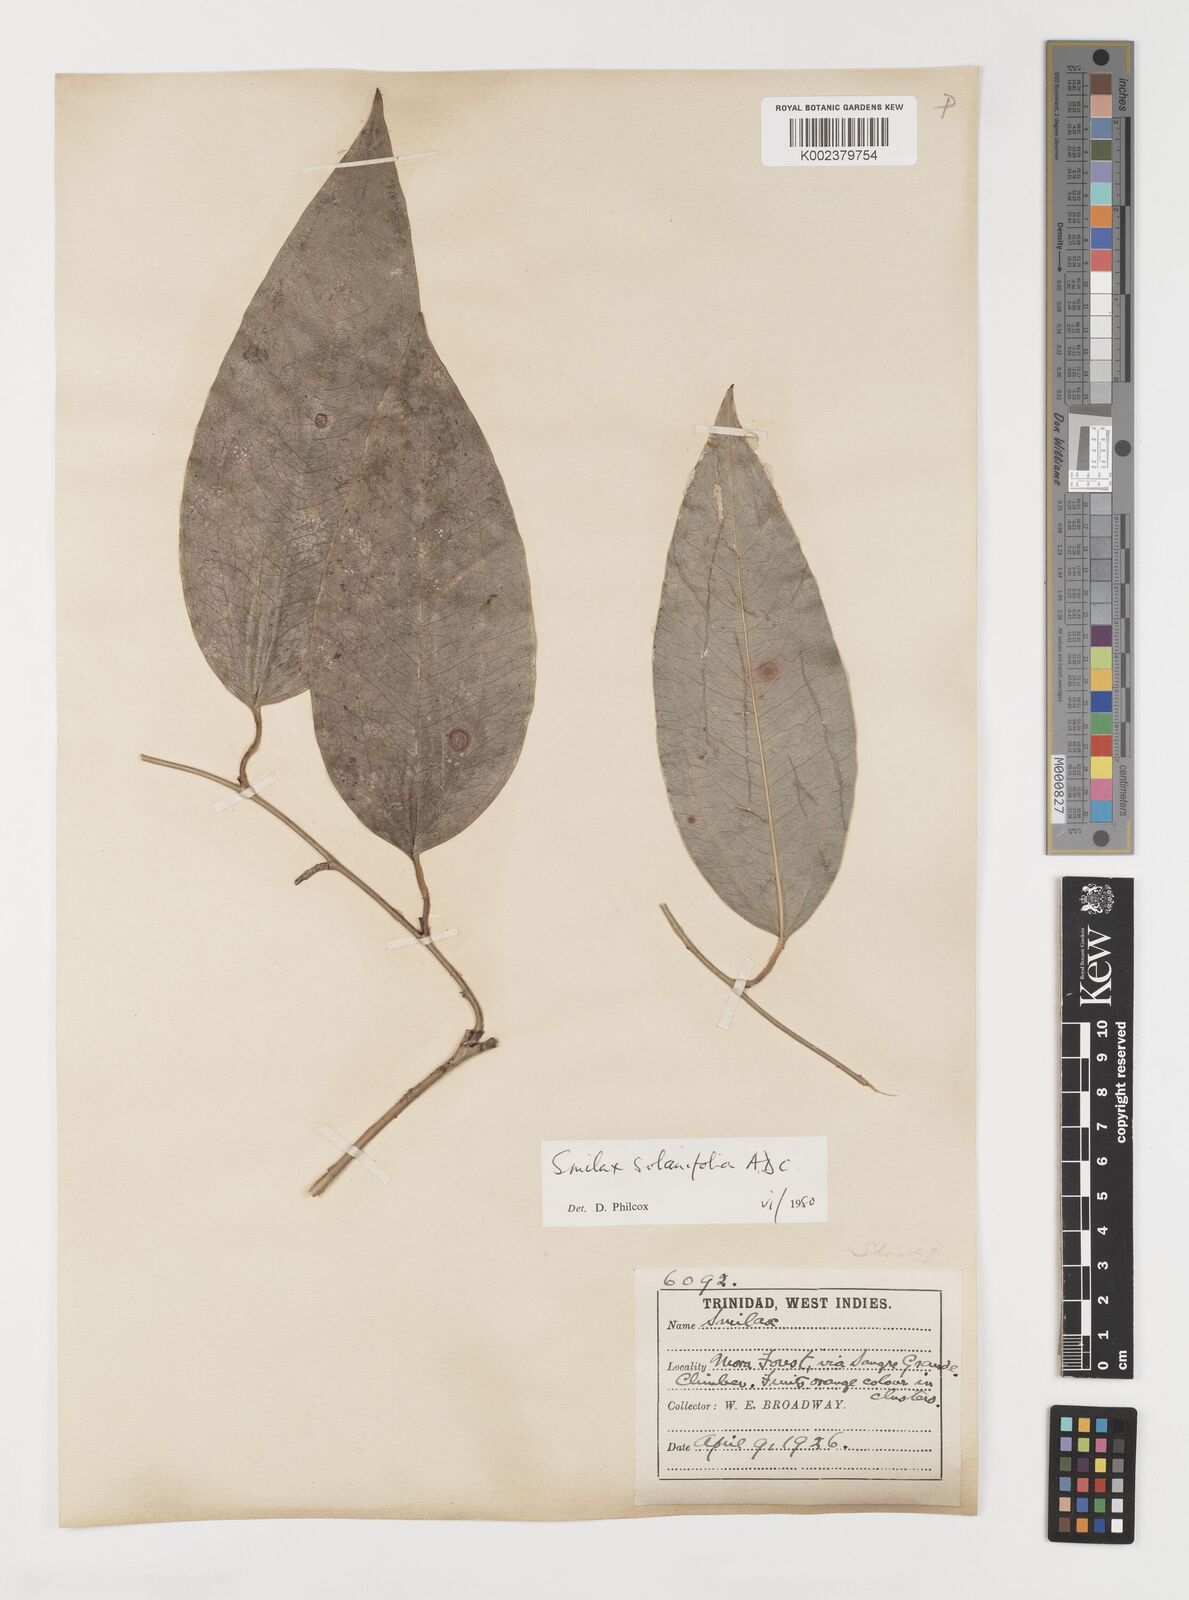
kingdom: Plantae
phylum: Tracheophyta
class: Liliopsida
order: Liliales
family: Smilacaceae
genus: Smilax
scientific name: Smilax solanifolia
